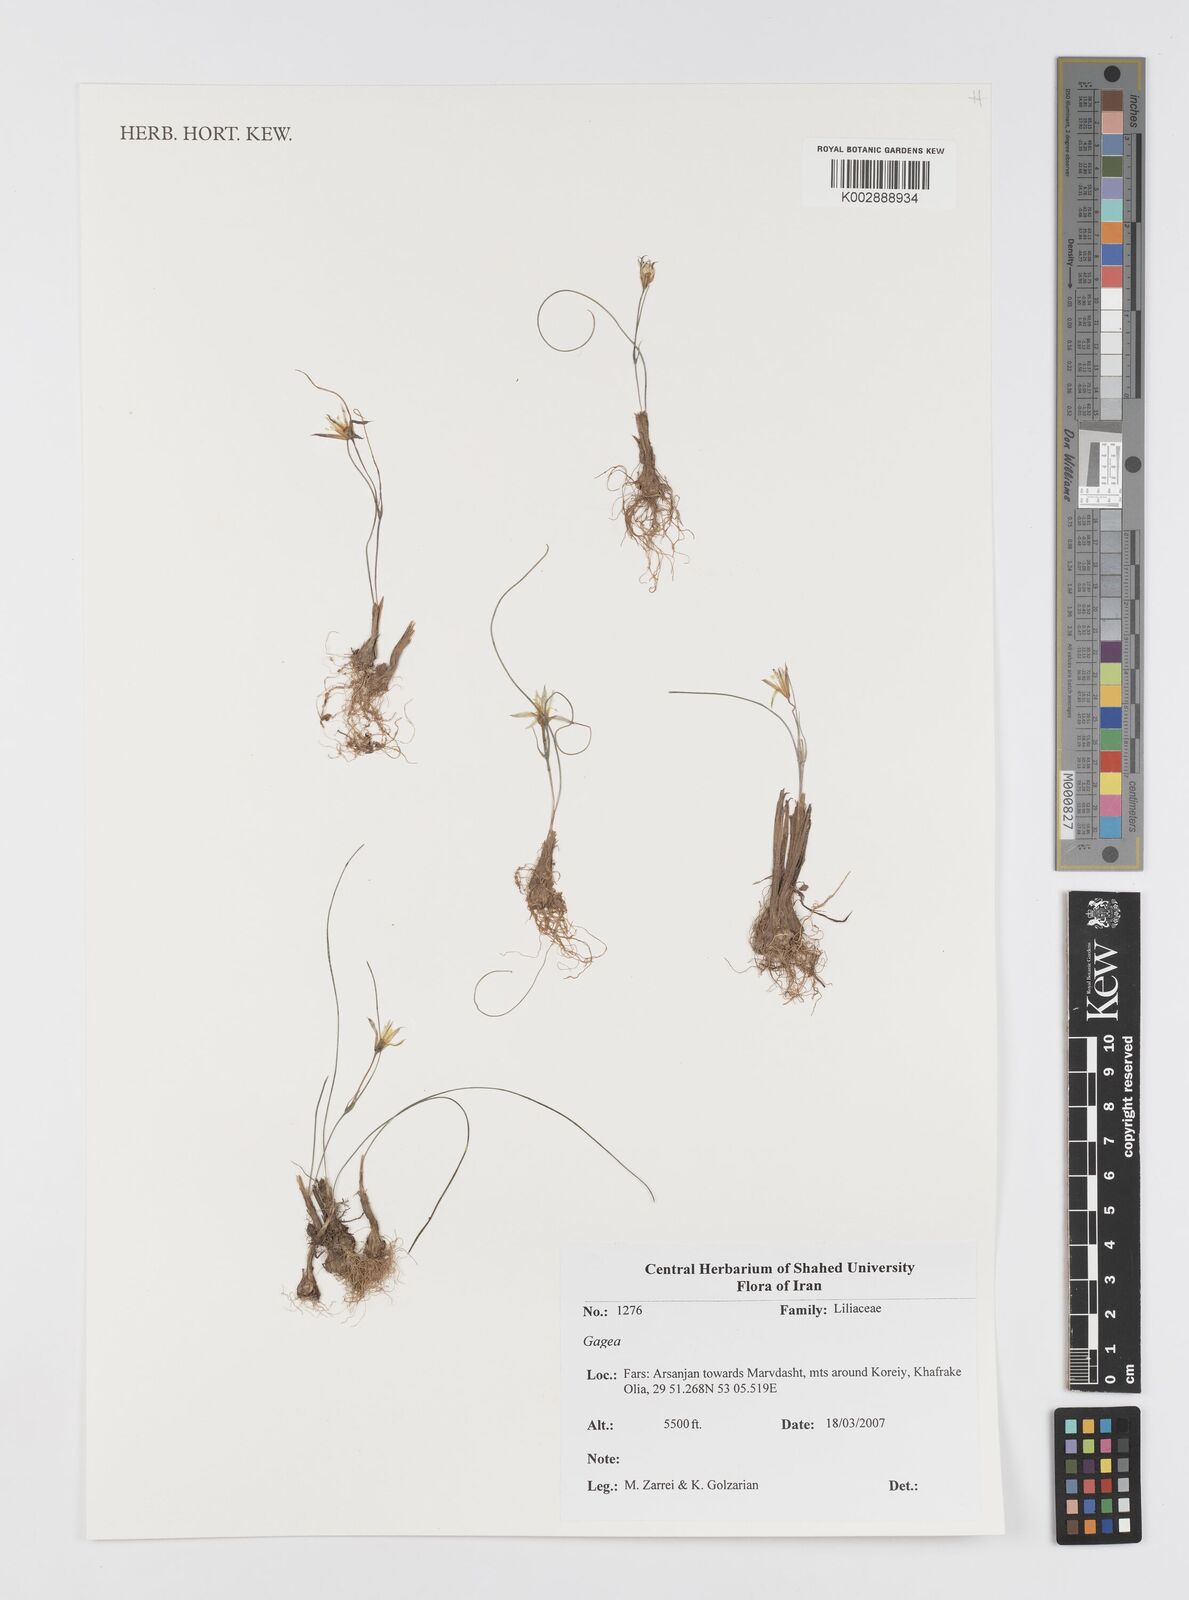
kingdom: Plantae
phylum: Tracheophyta
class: Liliopsida
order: Liliales
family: Liliaceae
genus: Gagea
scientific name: Gagea
